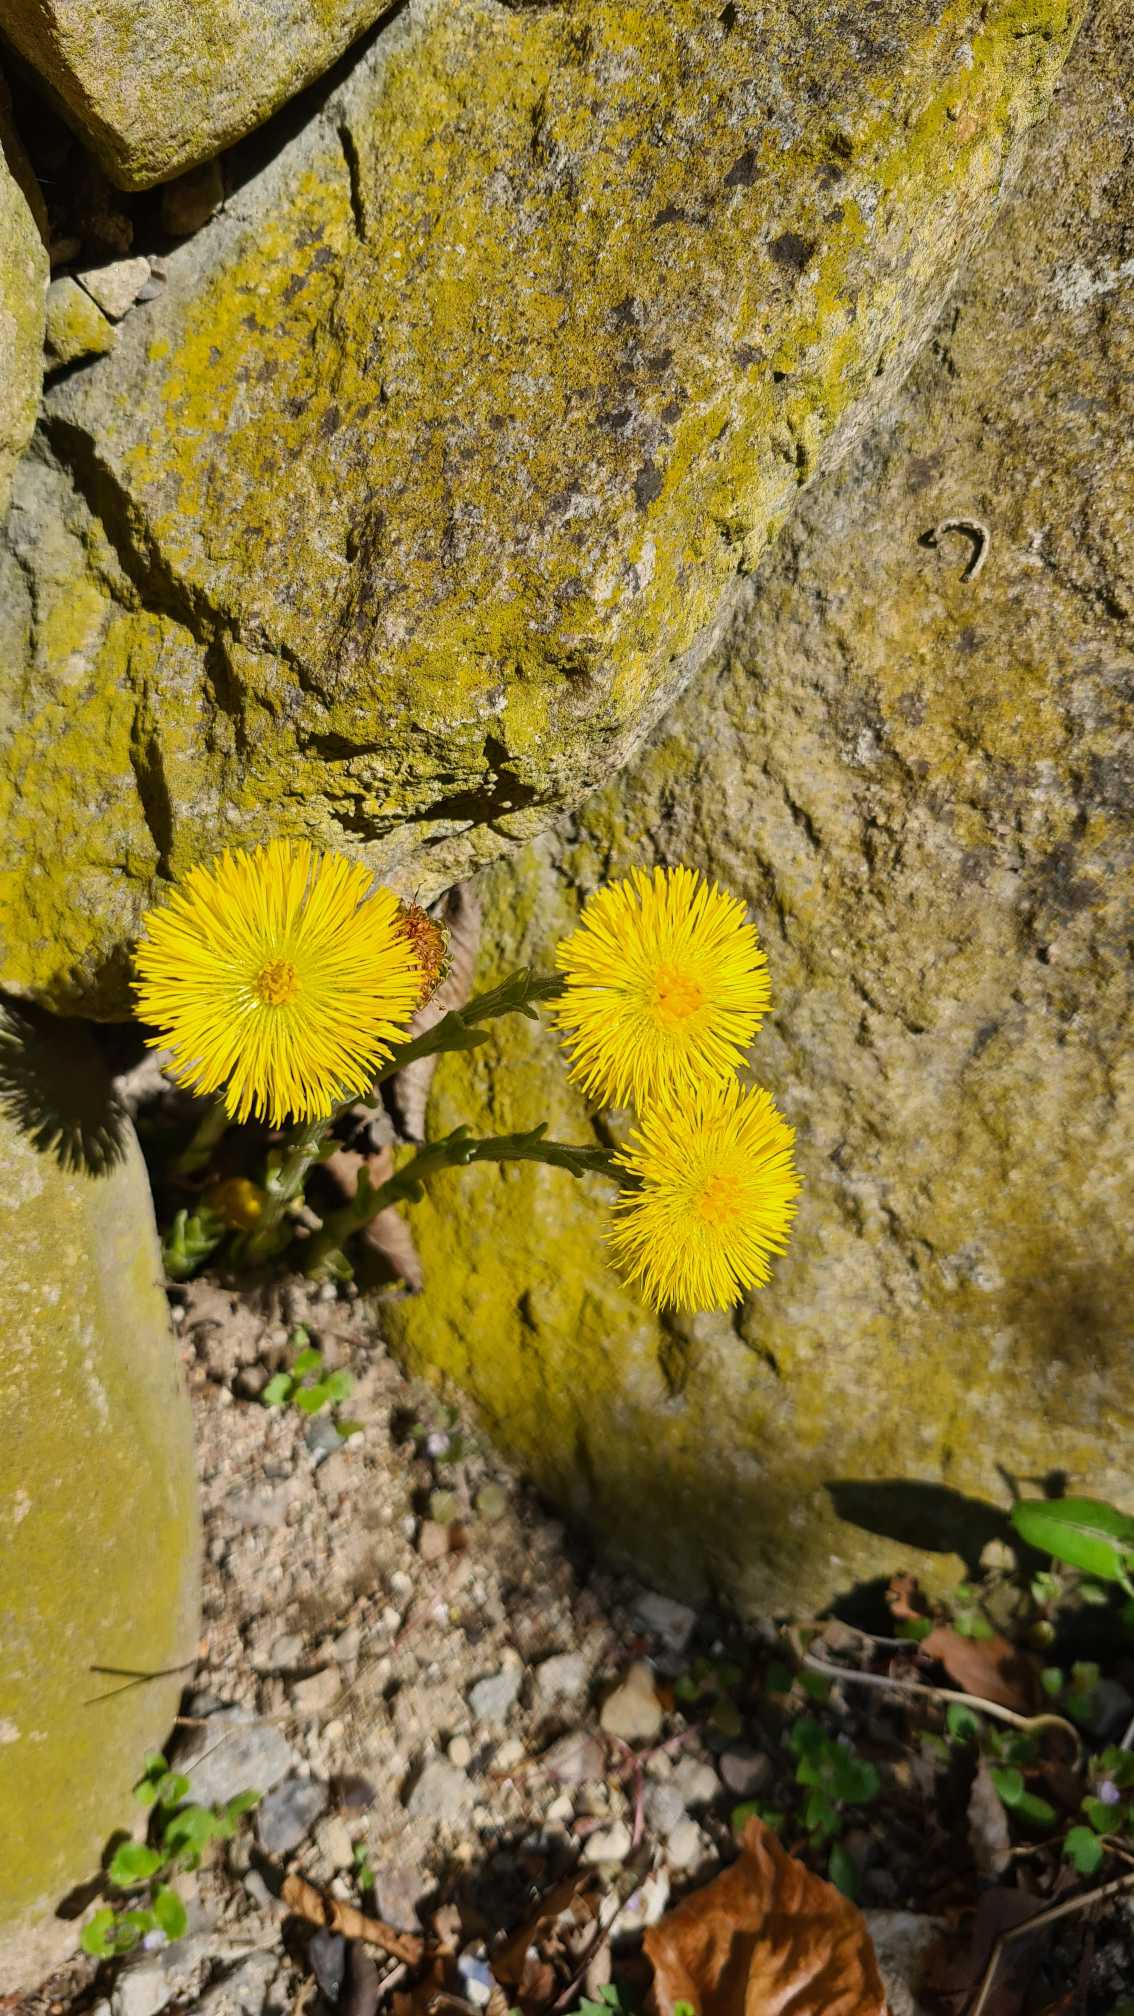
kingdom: Plantae
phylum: Tracheophyta
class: Magnoliopsida
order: Asterales
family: Asteraceae
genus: Tussilago
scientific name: Tussilago farfara
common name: Følfod
